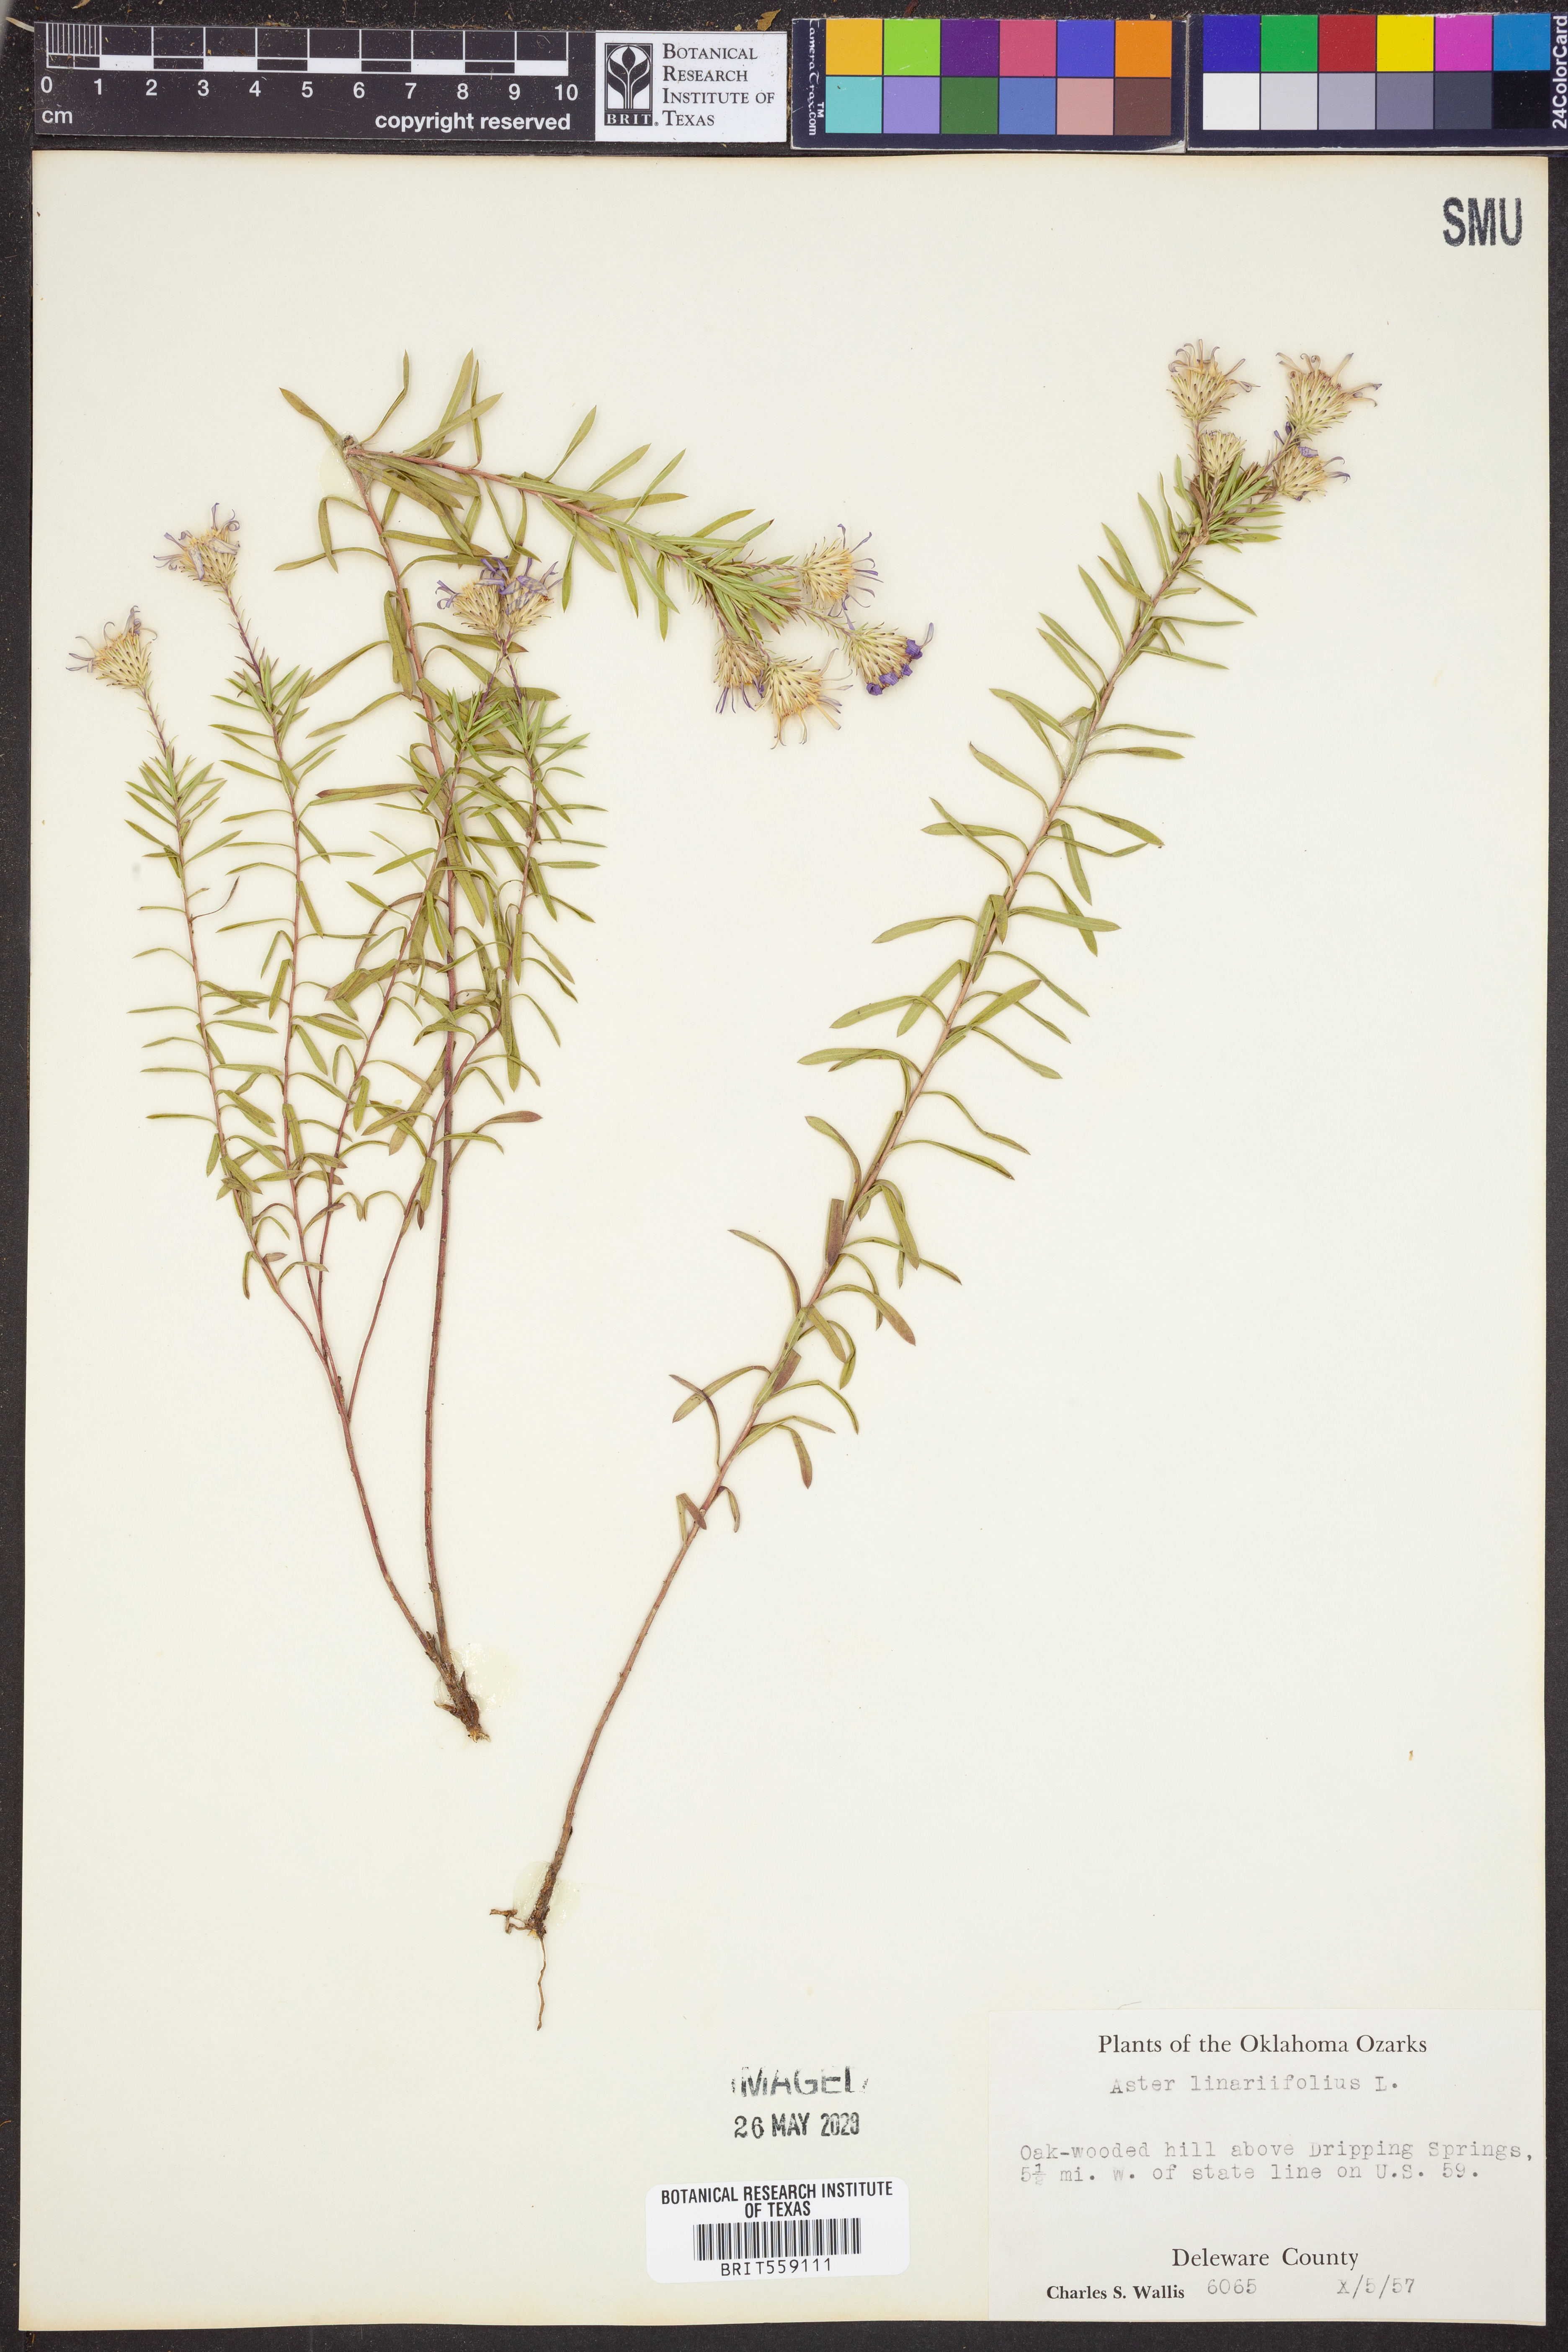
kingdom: Plantae
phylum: Tracheophyta
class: Magnoliopsida
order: Asterales
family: Asteraceae
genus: Ionactis
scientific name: Ionactis linariifolia
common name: Flax-leaf aster
